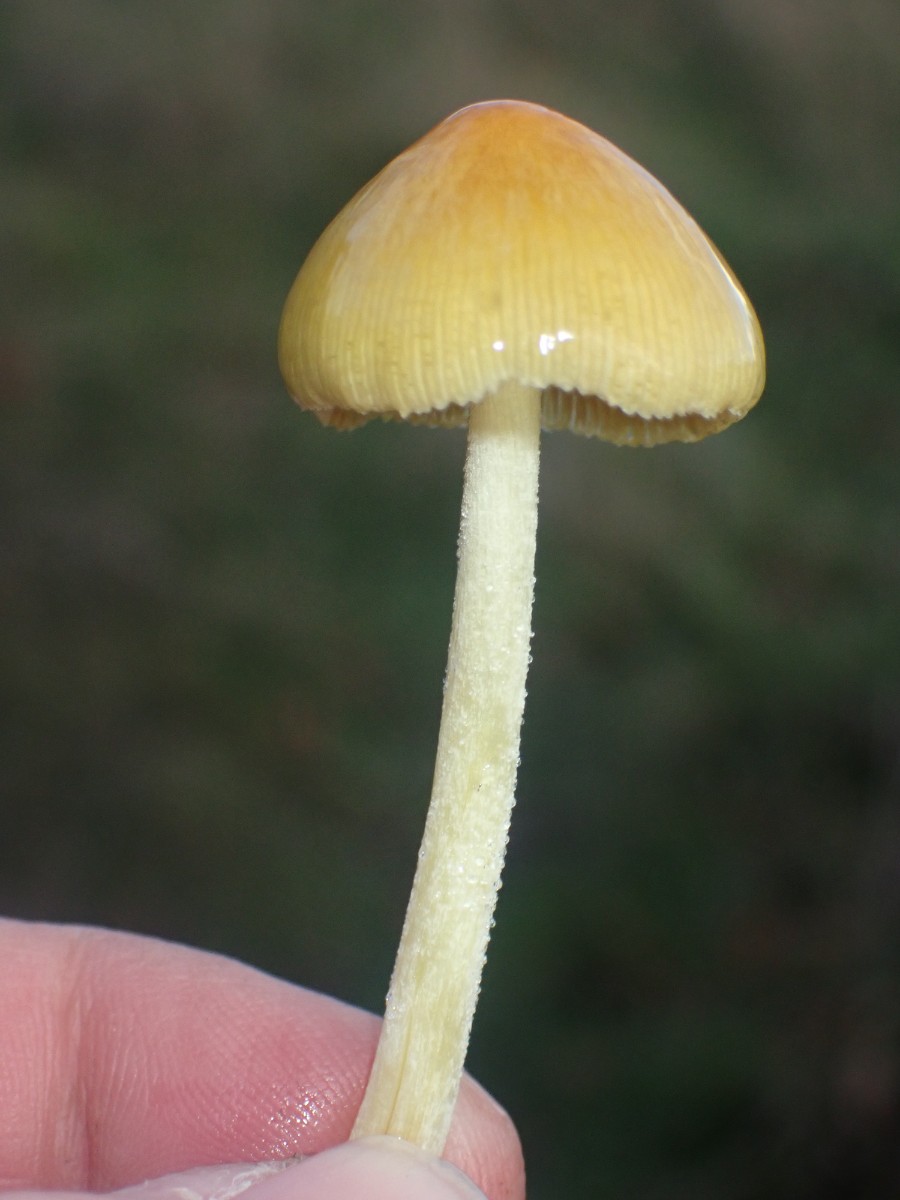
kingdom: Fungi
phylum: Basidiomycota
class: Agaricomycetes
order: Agaricales
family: Bolbitiaceae
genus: Bolbitius
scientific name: Bolbitius titubans
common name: almindelig gulhat
